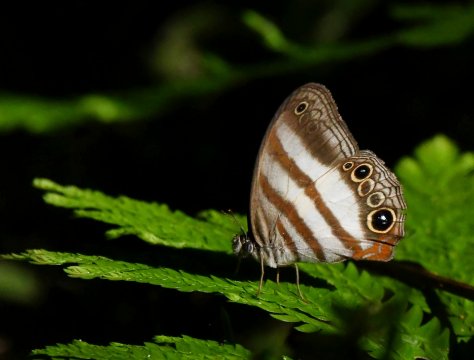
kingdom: Animalia
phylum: Arthropoda
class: Insecta
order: Lepidoptera
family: Nymphalidae
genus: Pareuptychia
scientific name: Pareuptychia metaleuca
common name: White-banded Satyr
